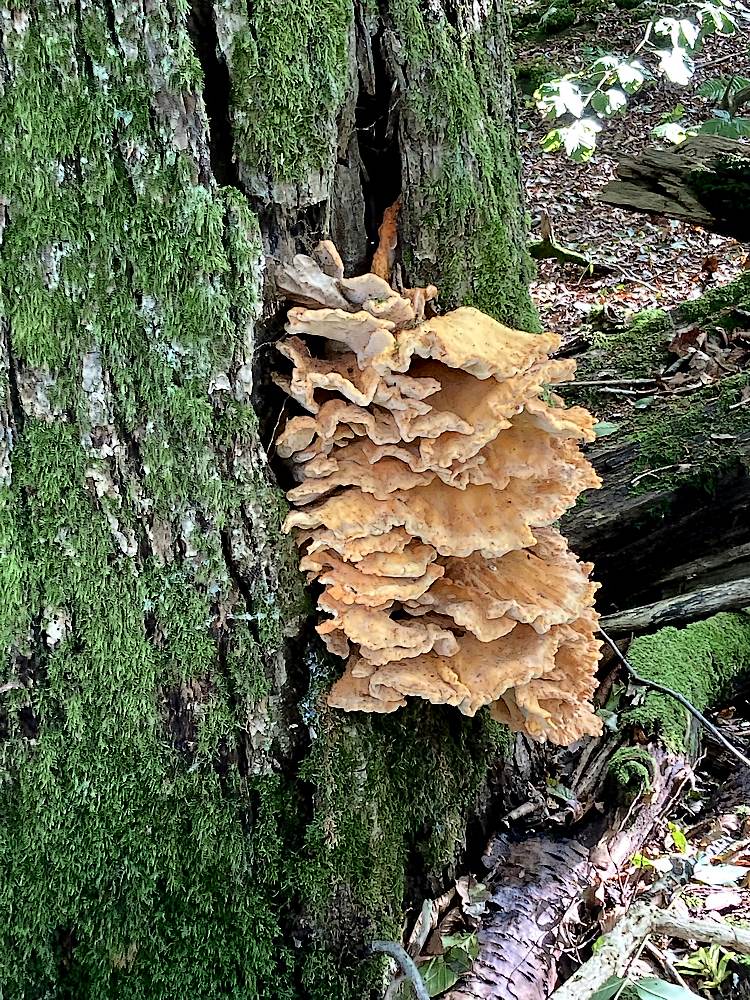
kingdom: Fungi
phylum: Basidiomycota
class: Agaricomycetes
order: Polyporales
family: Laetiporaceae
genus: Laetiporus
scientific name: Laetiporus sulphureus
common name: svovlporesvamp
